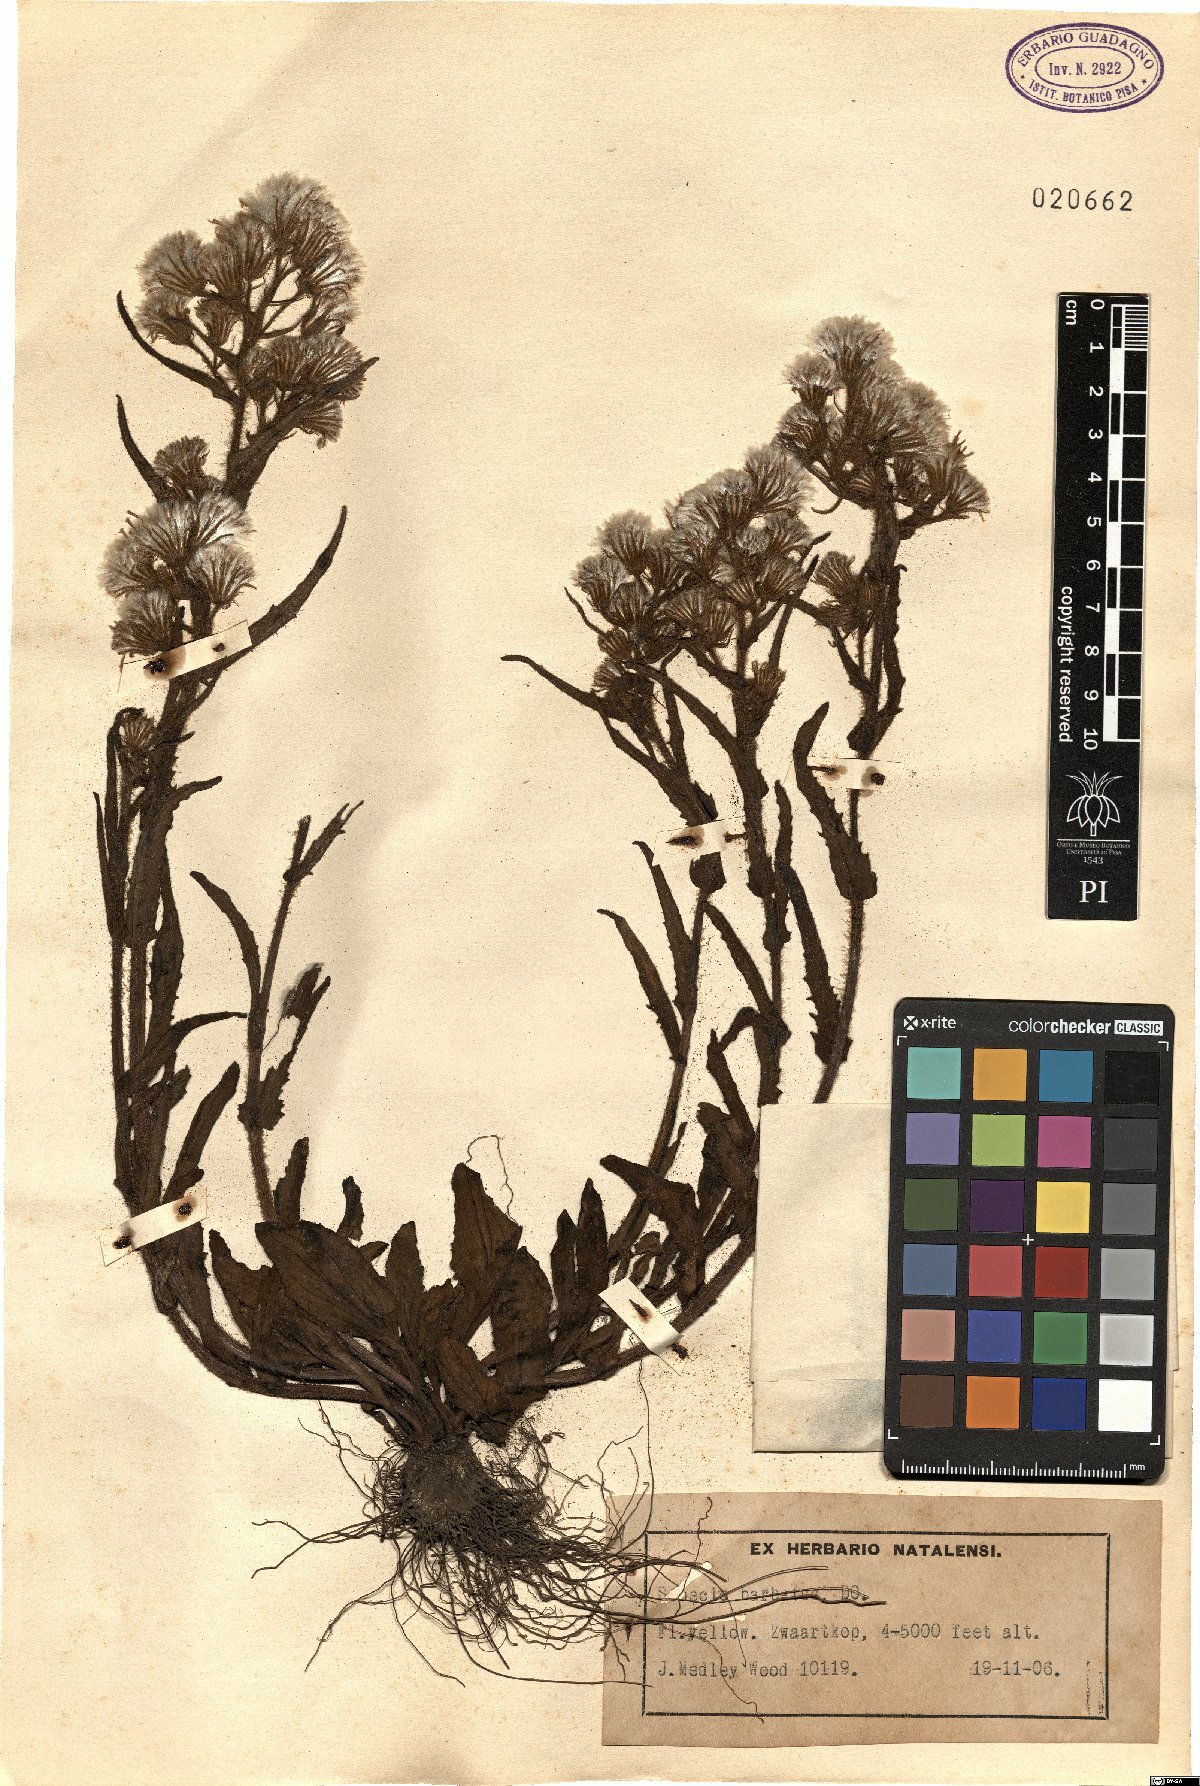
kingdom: Plantae
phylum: Tracheophyta
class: Magnoliopsida
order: Asterales
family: Asteraceae
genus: Senecio
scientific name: Senecio barbatus
